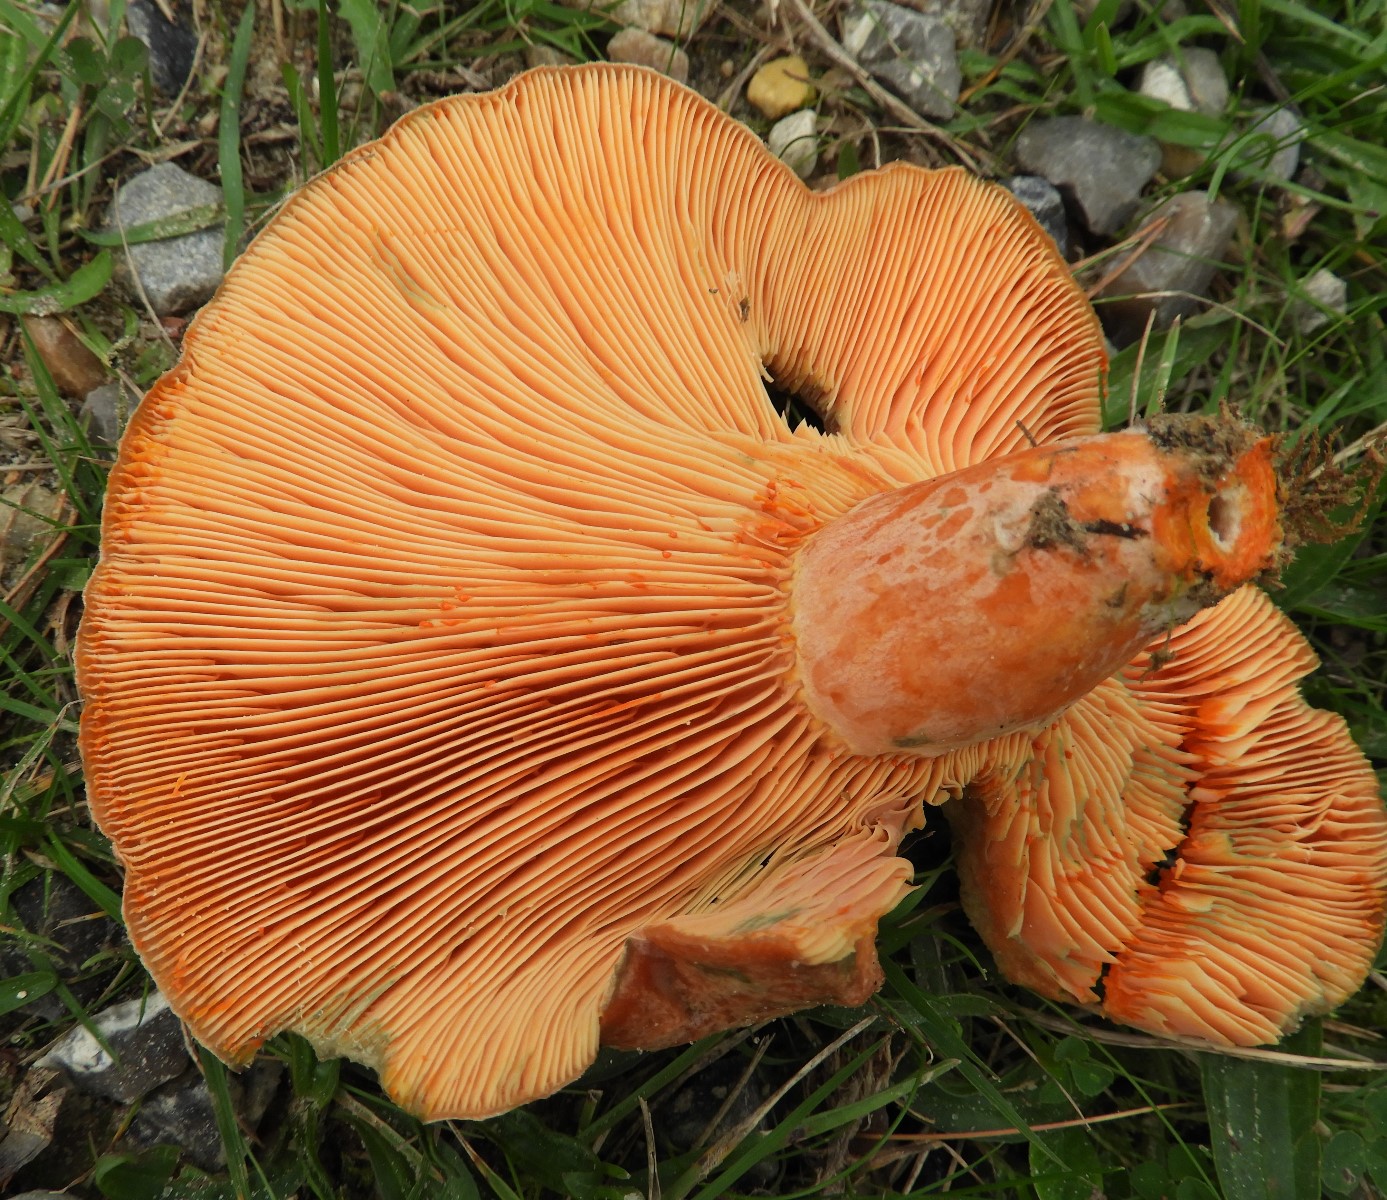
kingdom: Fungi
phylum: Basidiomycota
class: Agaricomycetes
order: Russulales
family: Russulaceae
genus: Lactarius
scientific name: Lactarius deliciosus
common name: velsmagende mælkehat
